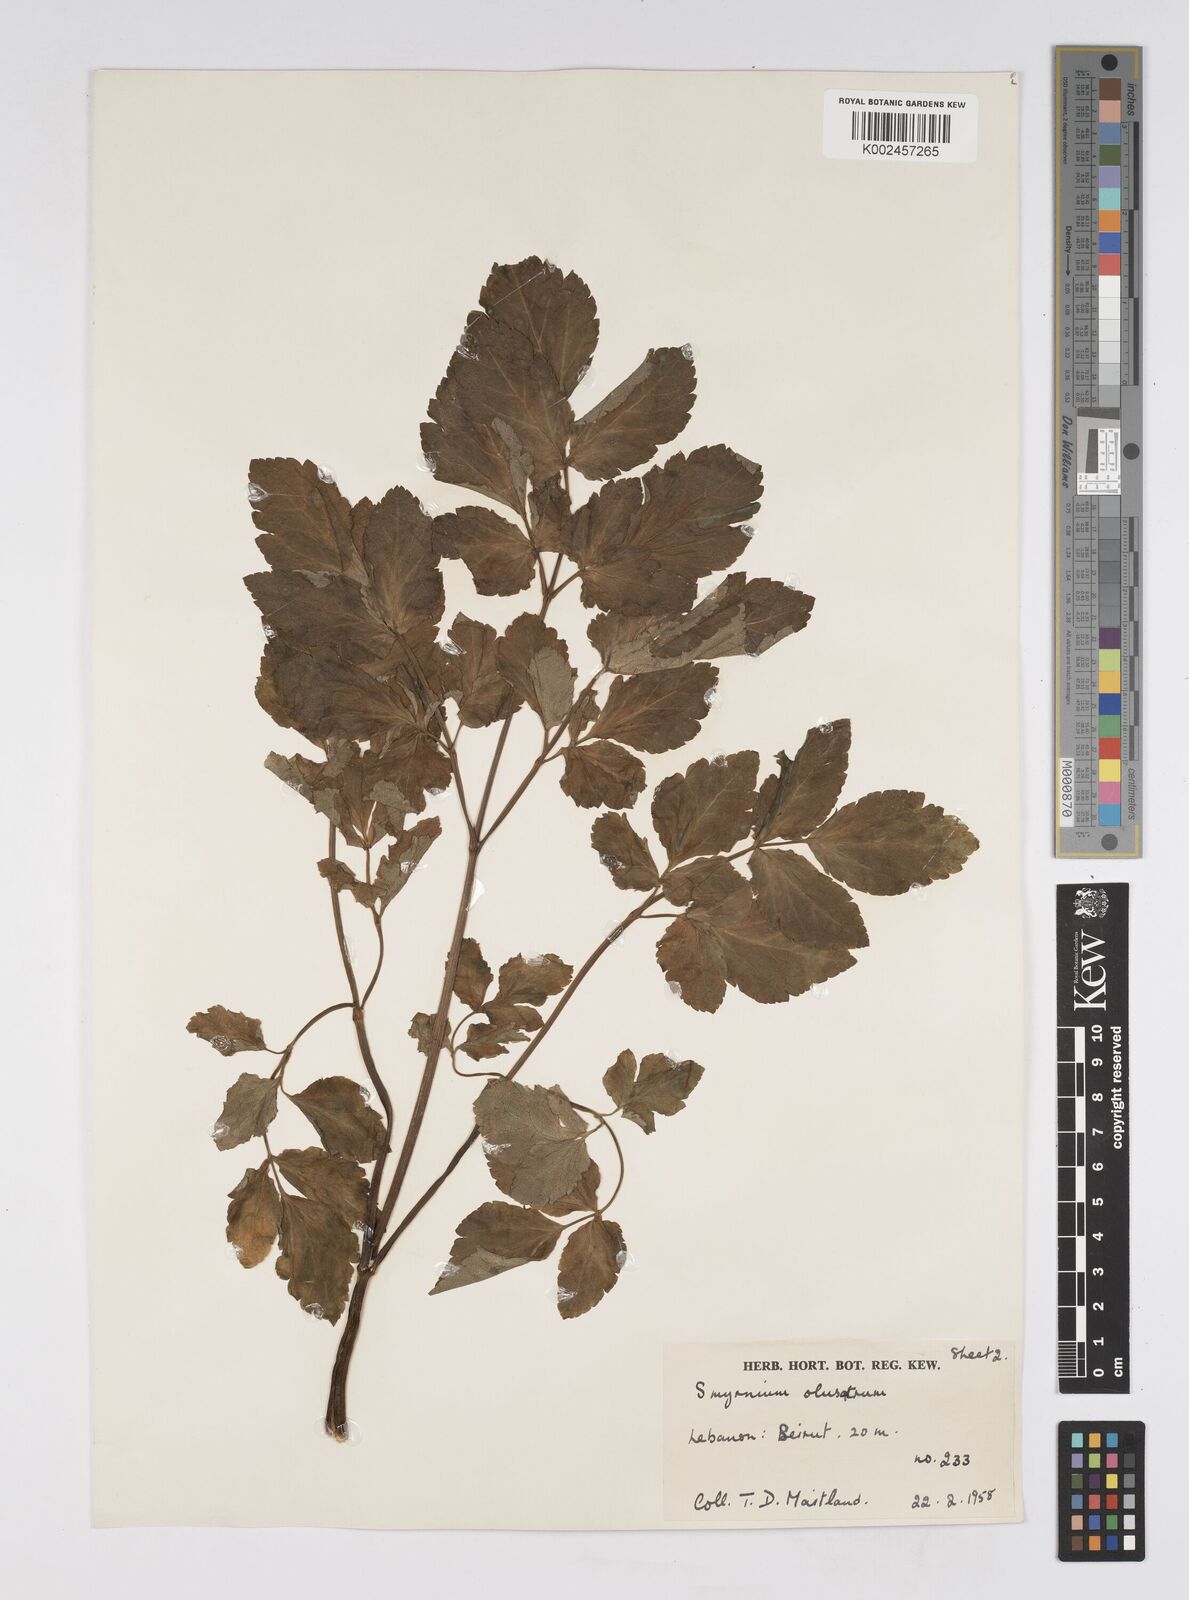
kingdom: Plantae
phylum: Tracheophyta
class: Magnoliopsida
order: Apiales
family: Apiaceae
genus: Smyrnium
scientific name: Smyrnium olusatrum
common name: Alexanders
